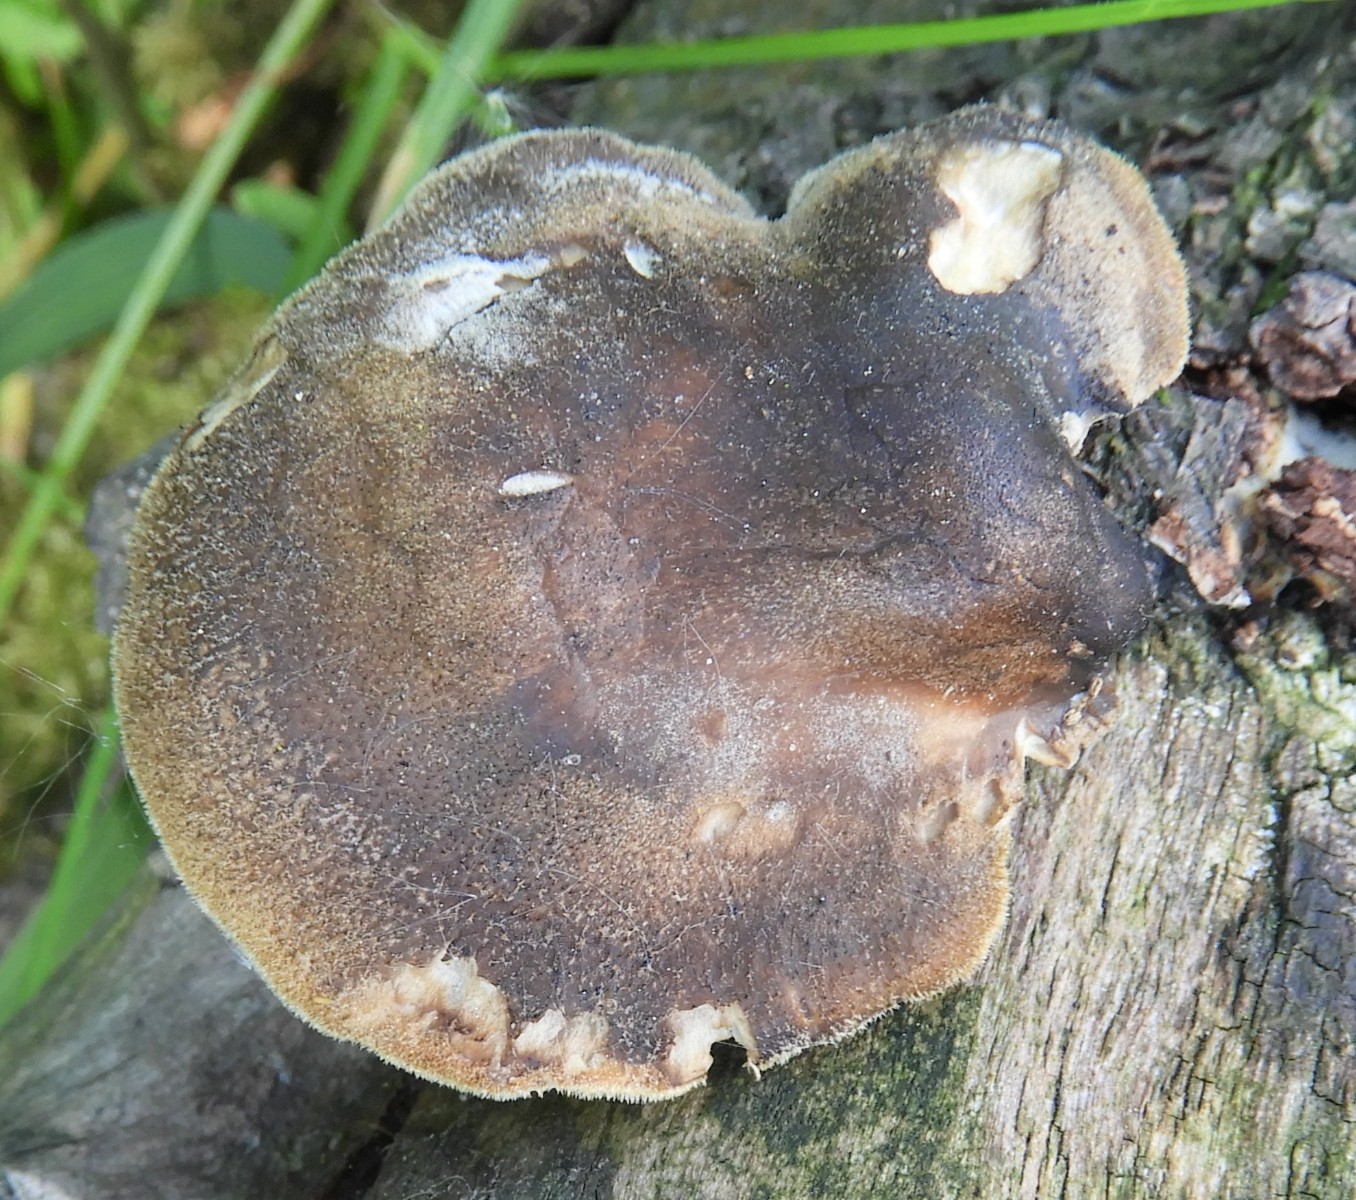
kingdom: Fungi
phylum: Basidiomycota
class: Agaricomycetes
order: Polyporales
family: Polyporaceae
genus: Lentinus
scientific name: Lentinus brumalis
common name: vinter-stilkporesvamp
